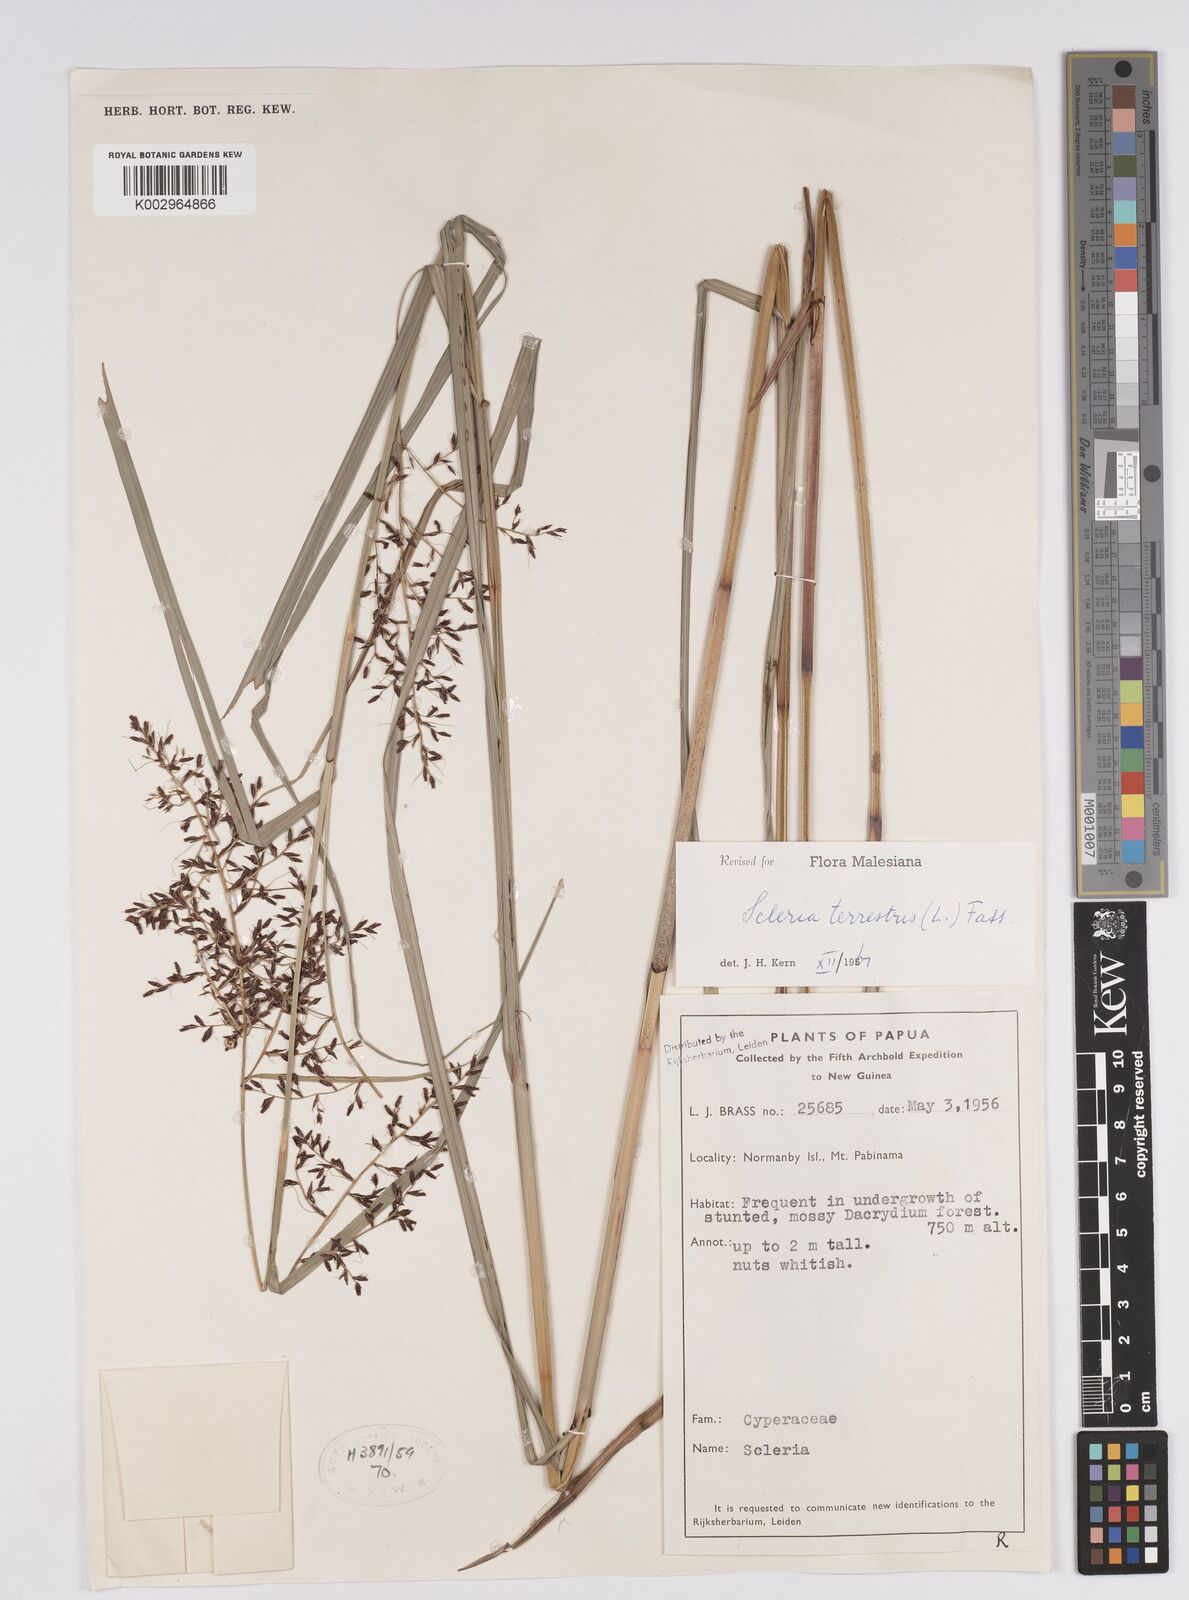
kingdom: Plantae
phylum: Tracheophyta
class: Liliopsida
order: Poales
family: Cyperaceae
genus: Scleria
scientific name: Scleria terrestris
